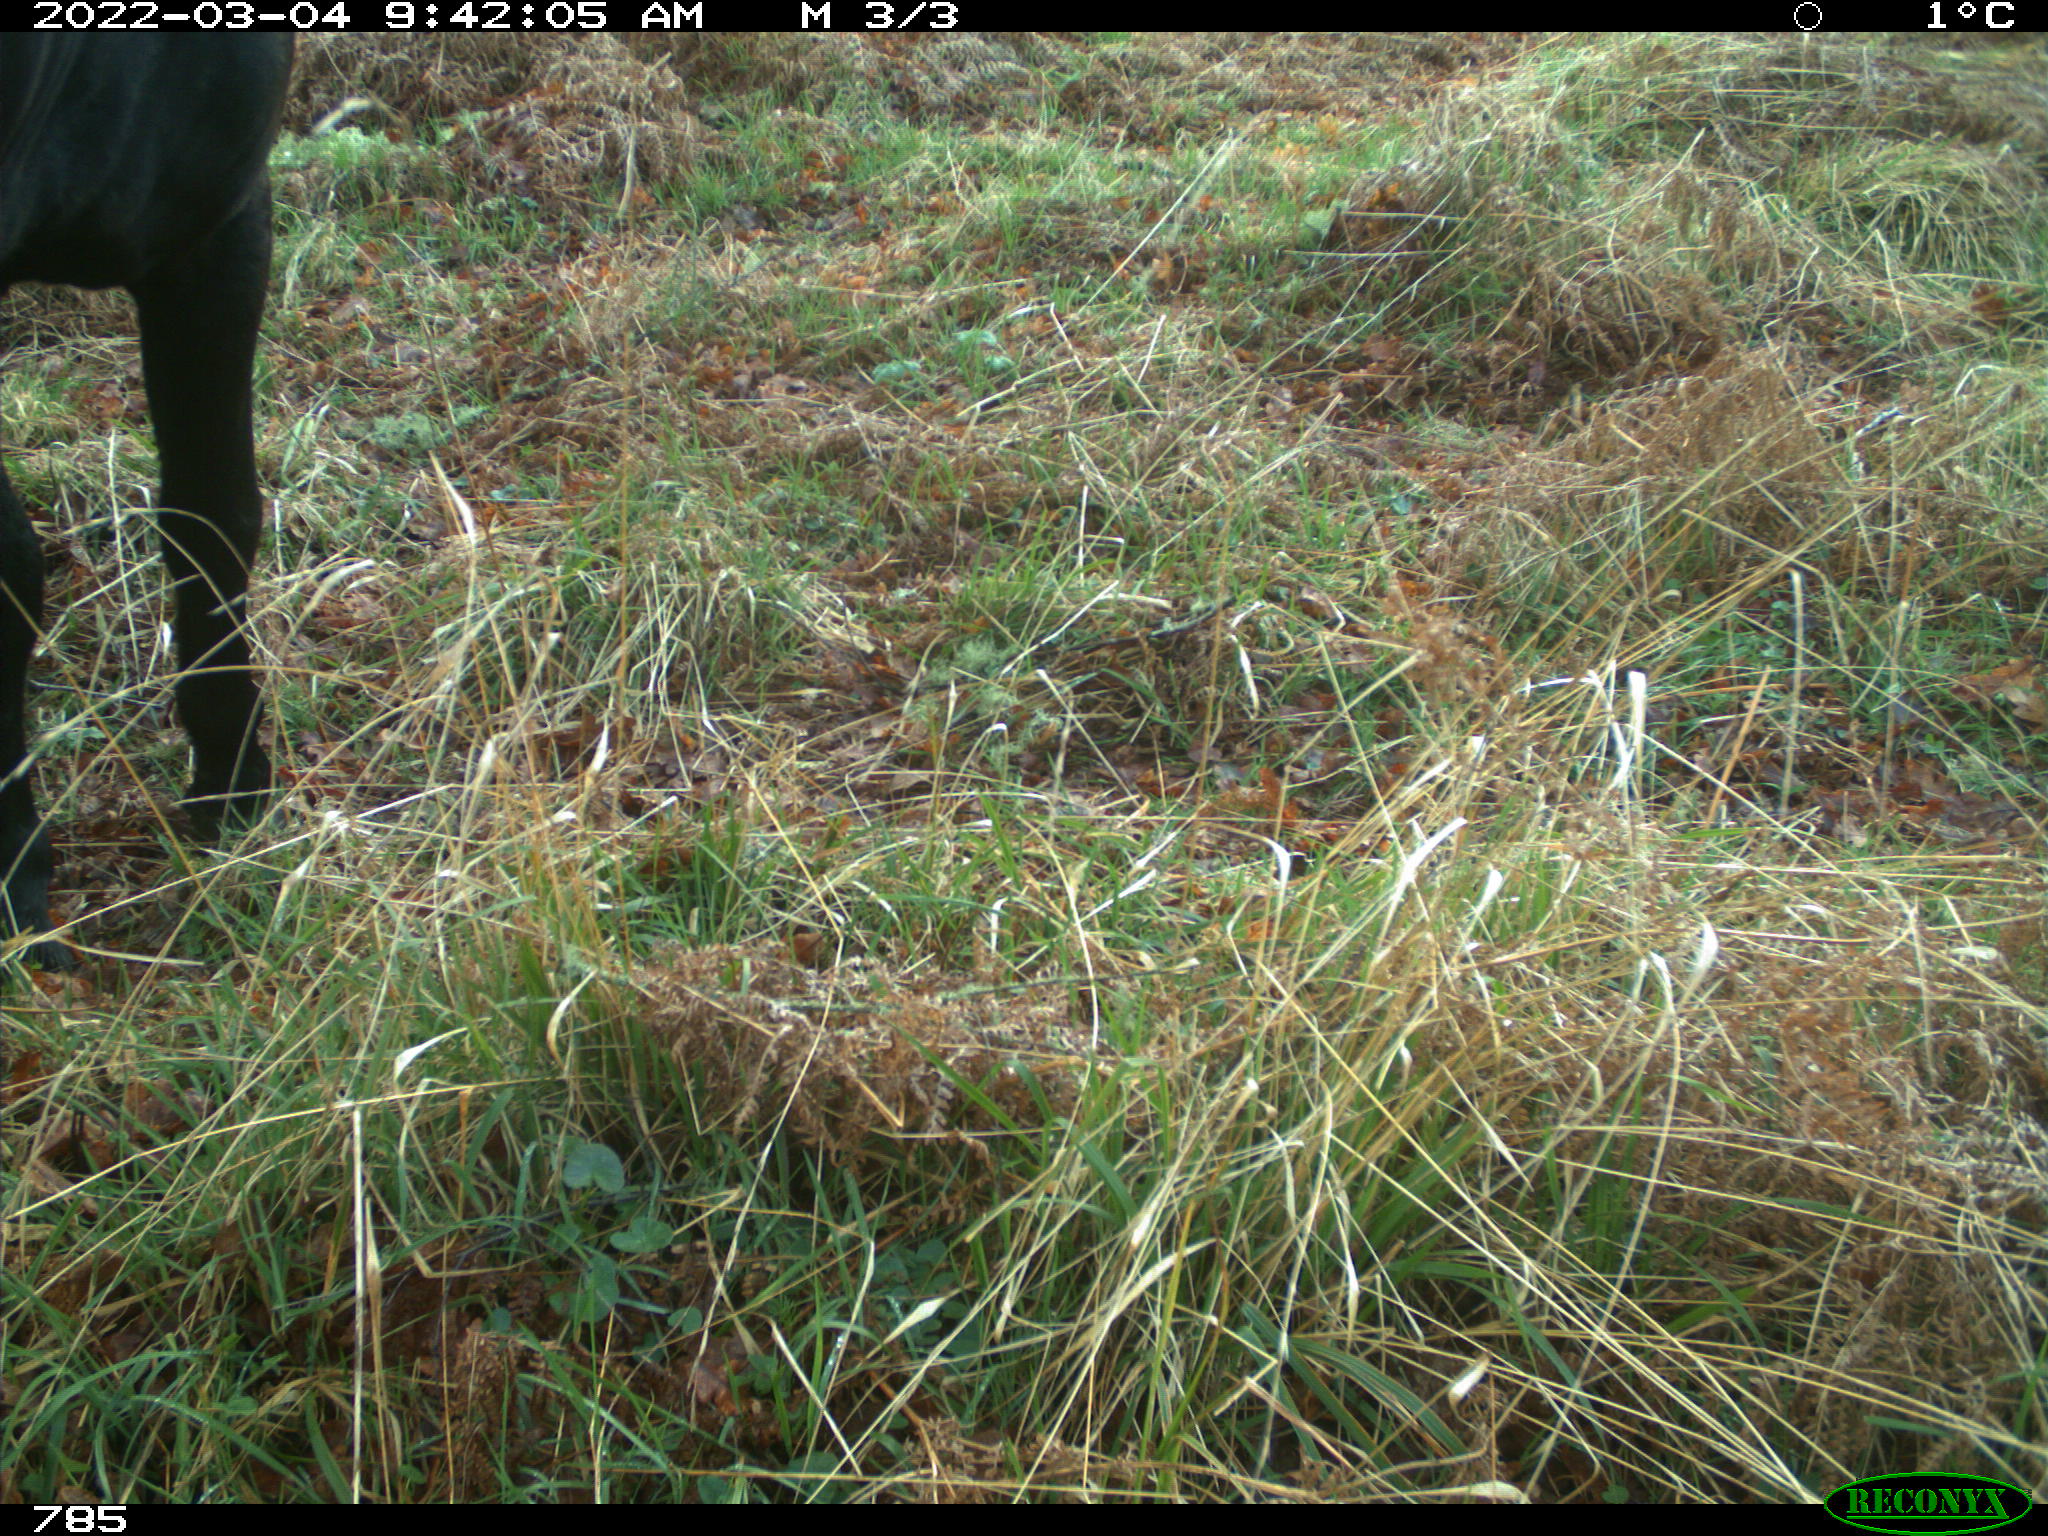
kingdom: Animalia
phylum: Chordata
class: Mammalia
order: Perissodactyla
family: Equidae
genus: Equus
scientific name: Equus caballus
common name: Horse
